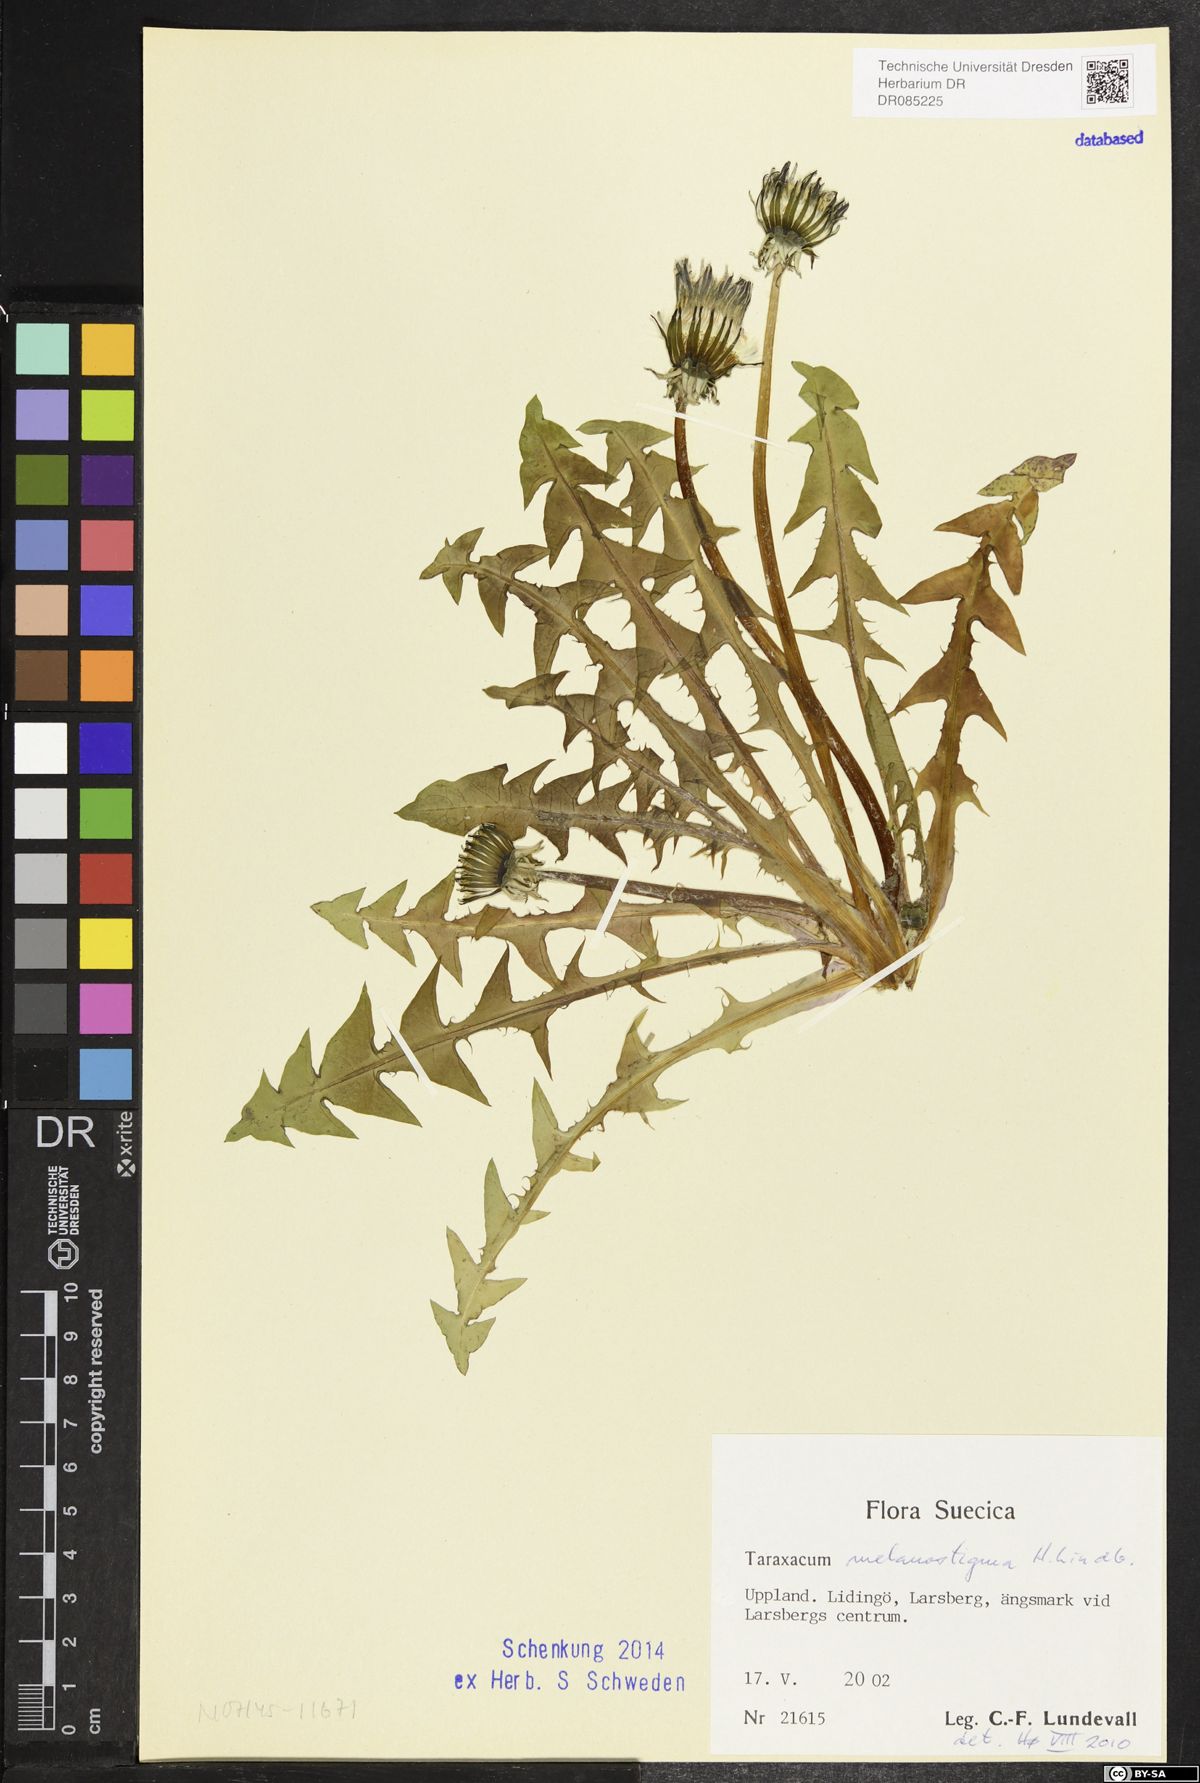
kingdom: Plantae
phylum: Tracheophyta
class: Magnoliopsida
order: Asterales
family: Asteraceae
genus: Taraxacum
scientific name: Taraxacum melanostigma
